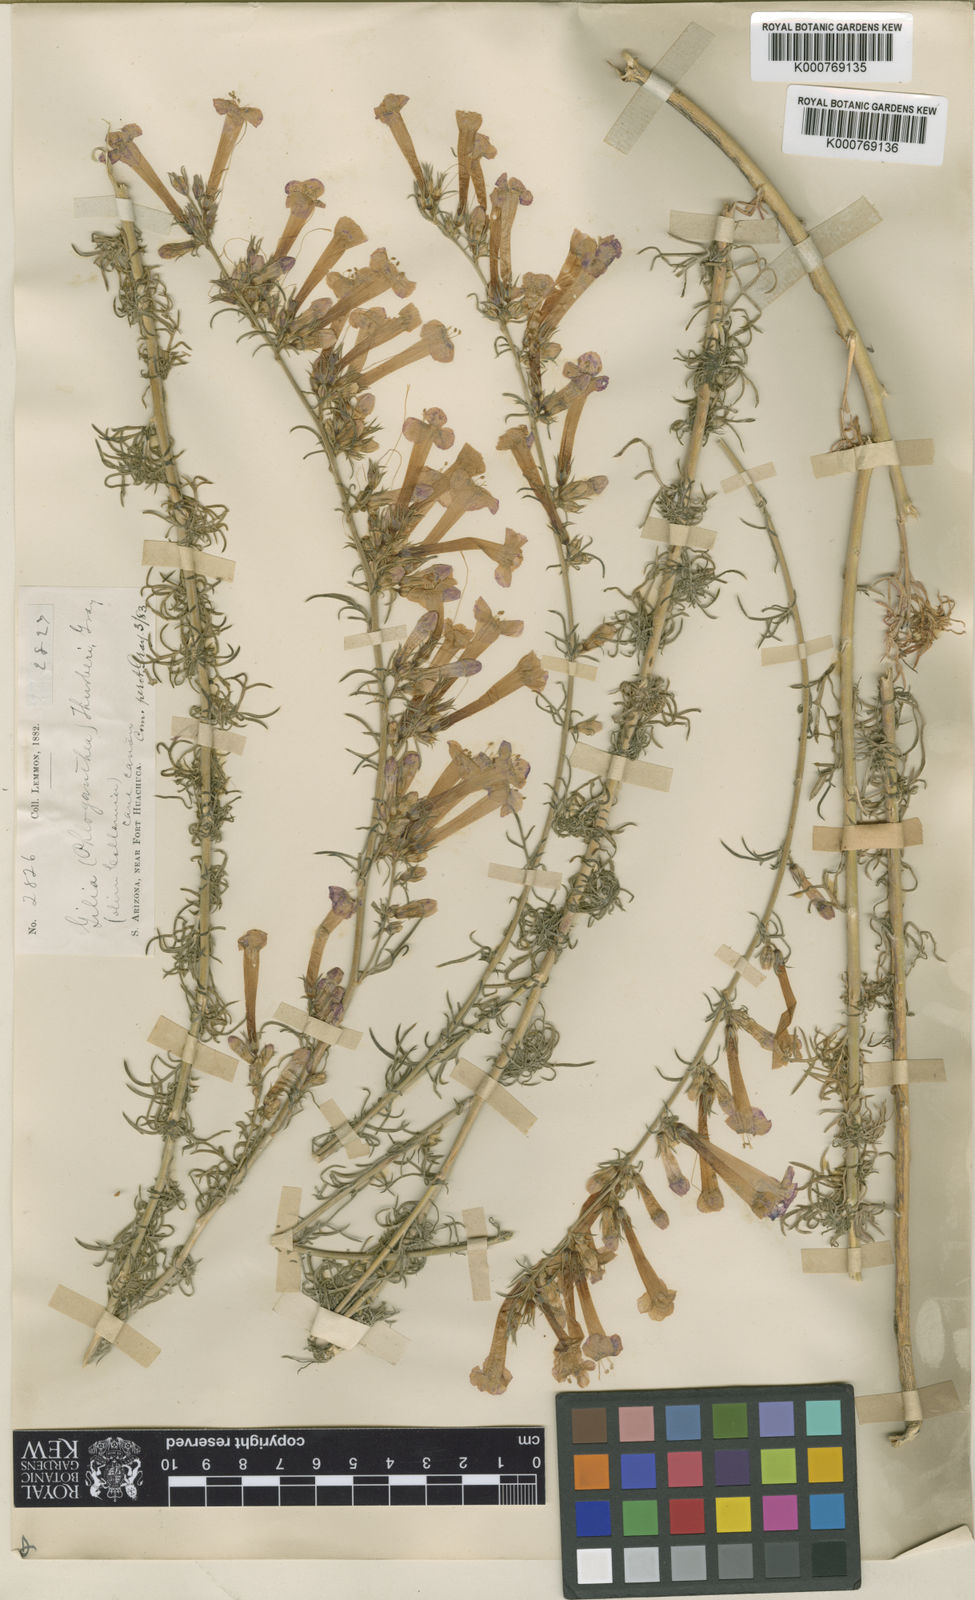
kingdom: Plantae
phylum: Tracheophyta
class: Magnoliopsida
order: Ericales
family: Polemoniaceae
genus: Ipomopsis
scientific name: Ipomopsis thurberi
